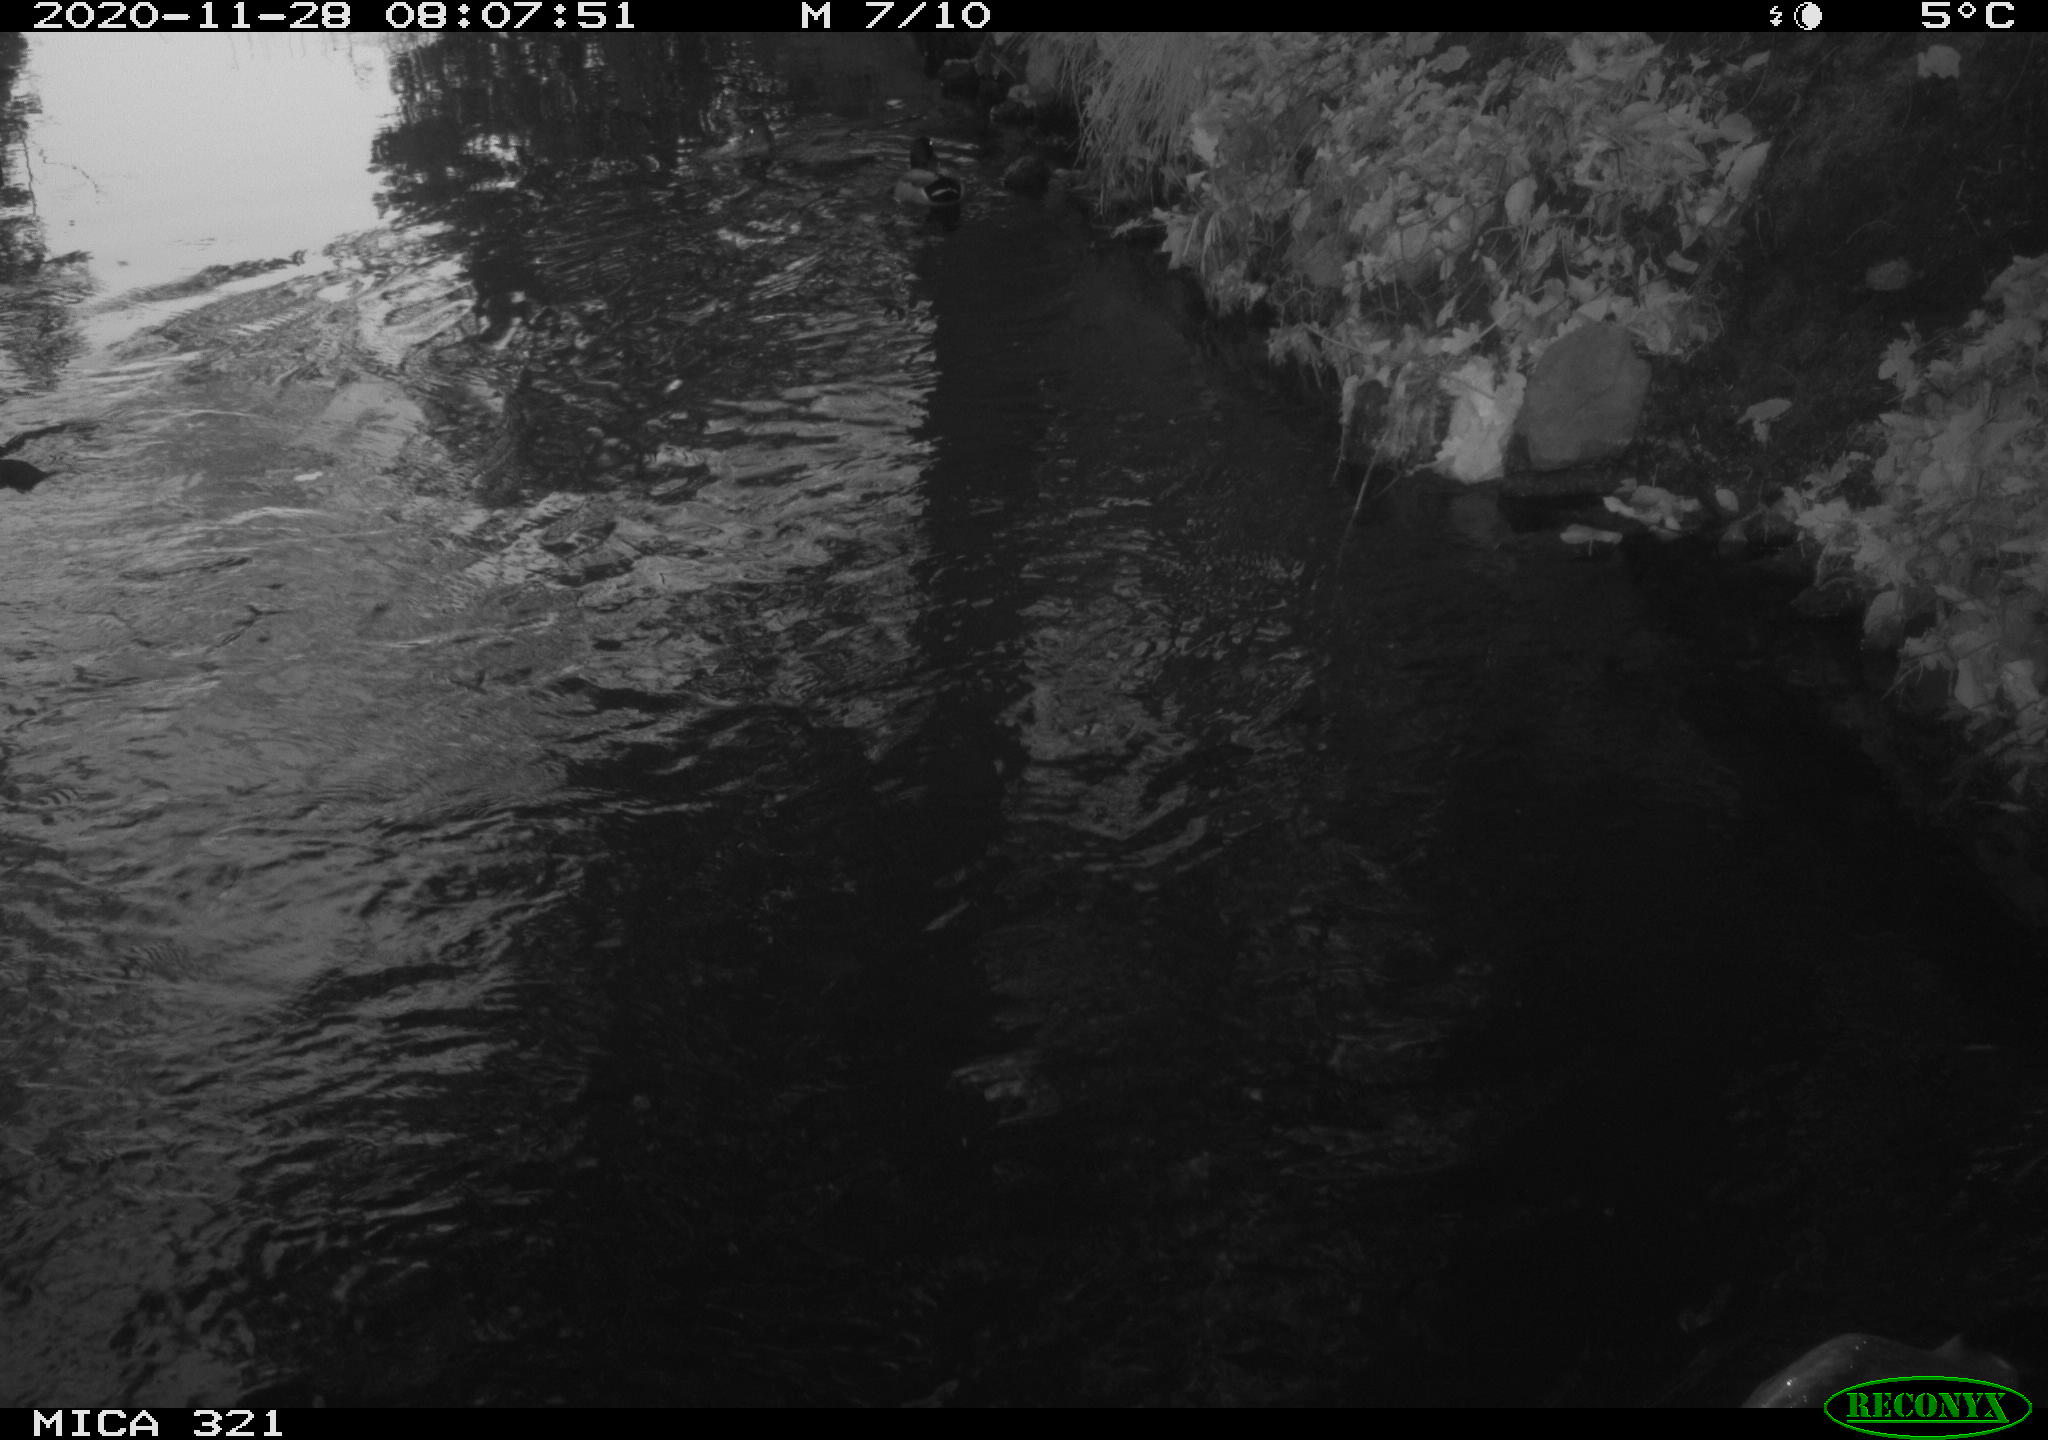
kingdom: Animalia
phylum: Chordata
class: Aves
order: Anseriformes
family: Anatidae
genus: Anas
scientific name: Anas platyrhynchos
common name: Mallard
